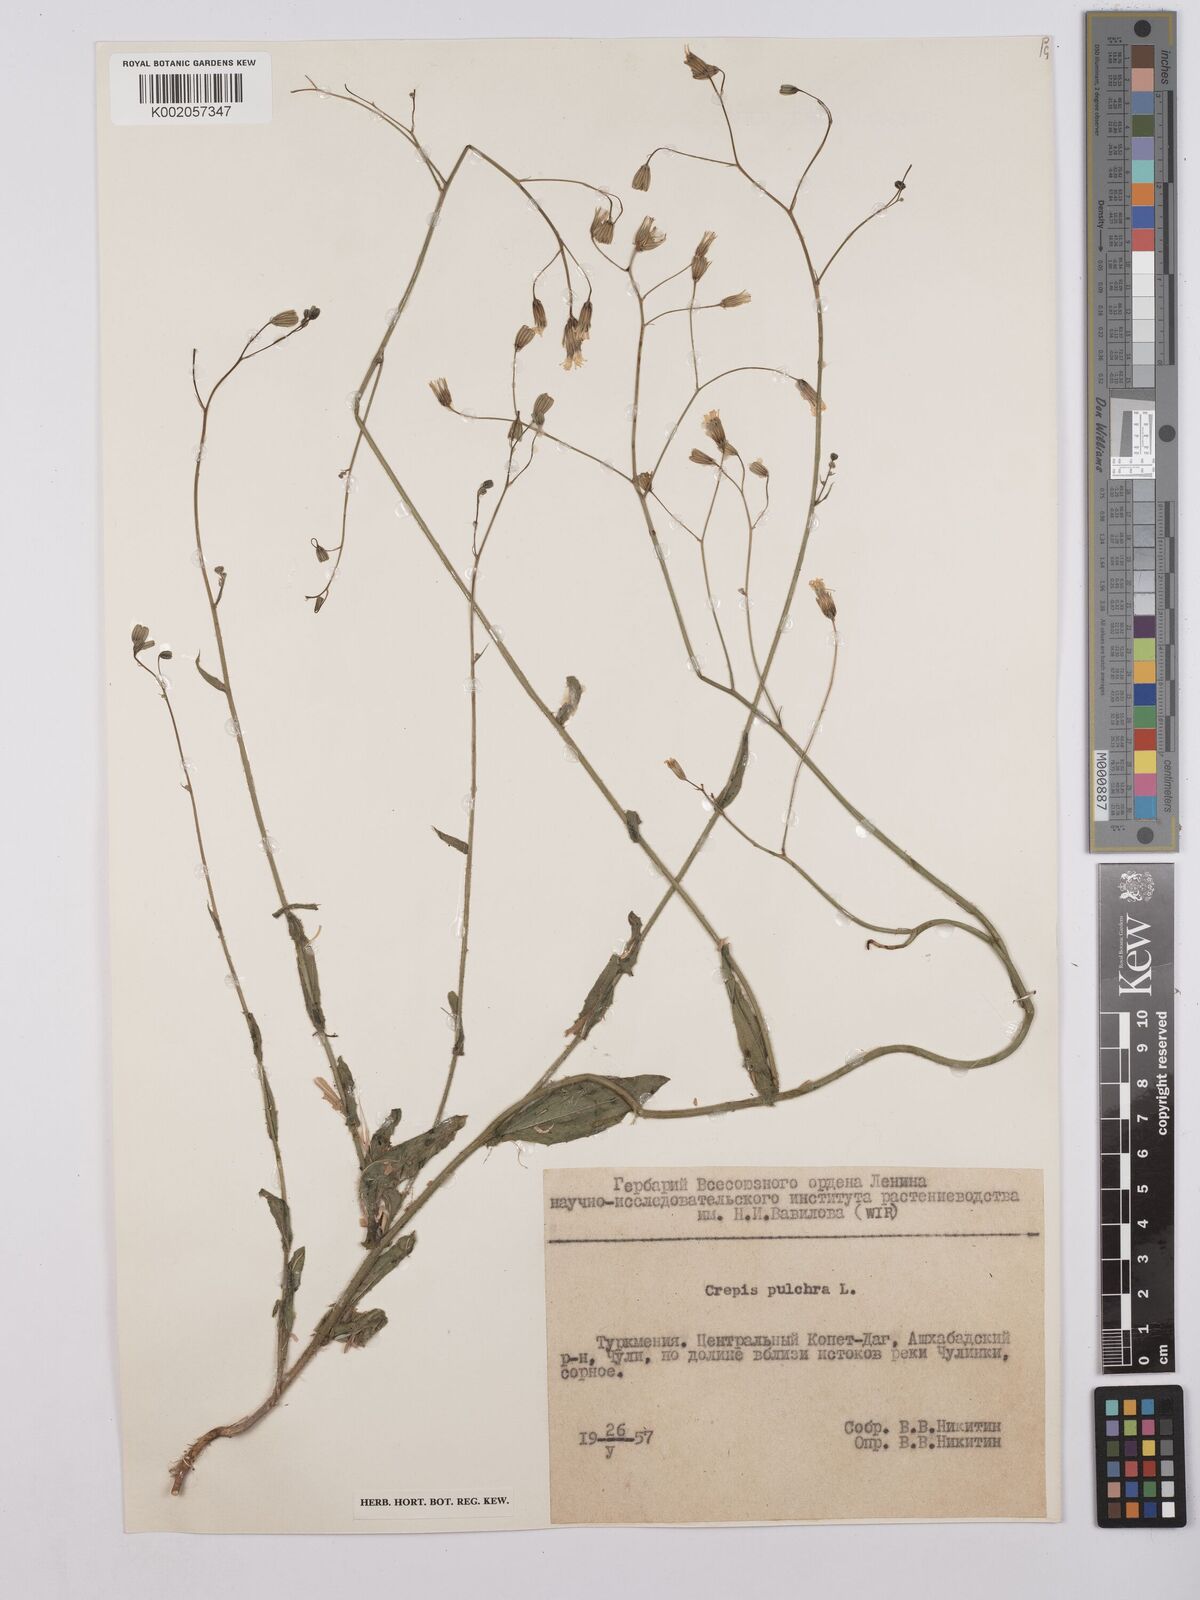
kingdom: Plantae
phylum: Tracheophyta
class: Magnoliopsida
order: Asterales
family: Asteraceae
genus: Crepis
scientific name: Crepis pulchra
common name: Hawk's-beard
